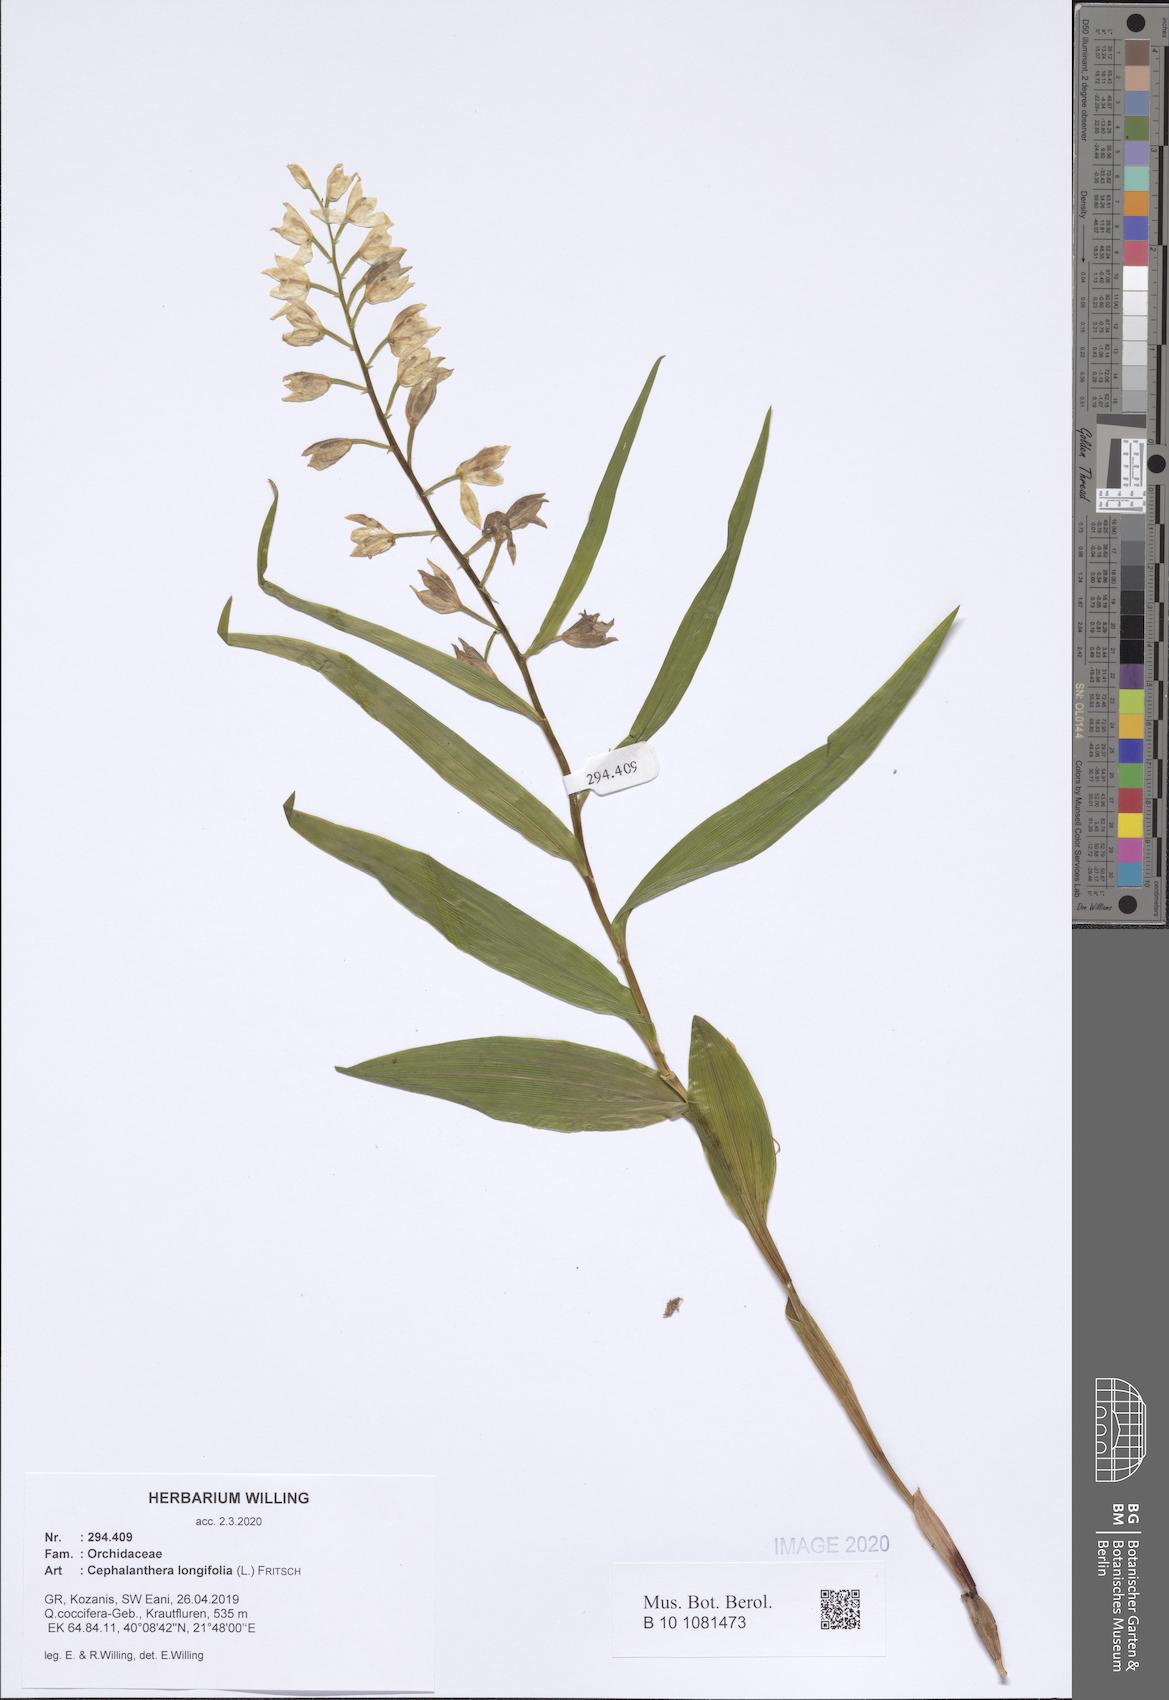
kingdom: Plantae
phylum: Tracheophyta
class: Liliopsida
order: Asparagales
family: Orchidaceae
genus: Cephalanthera
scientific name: Cephalanthera longifolia
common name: Narrow-leaved helleborine
